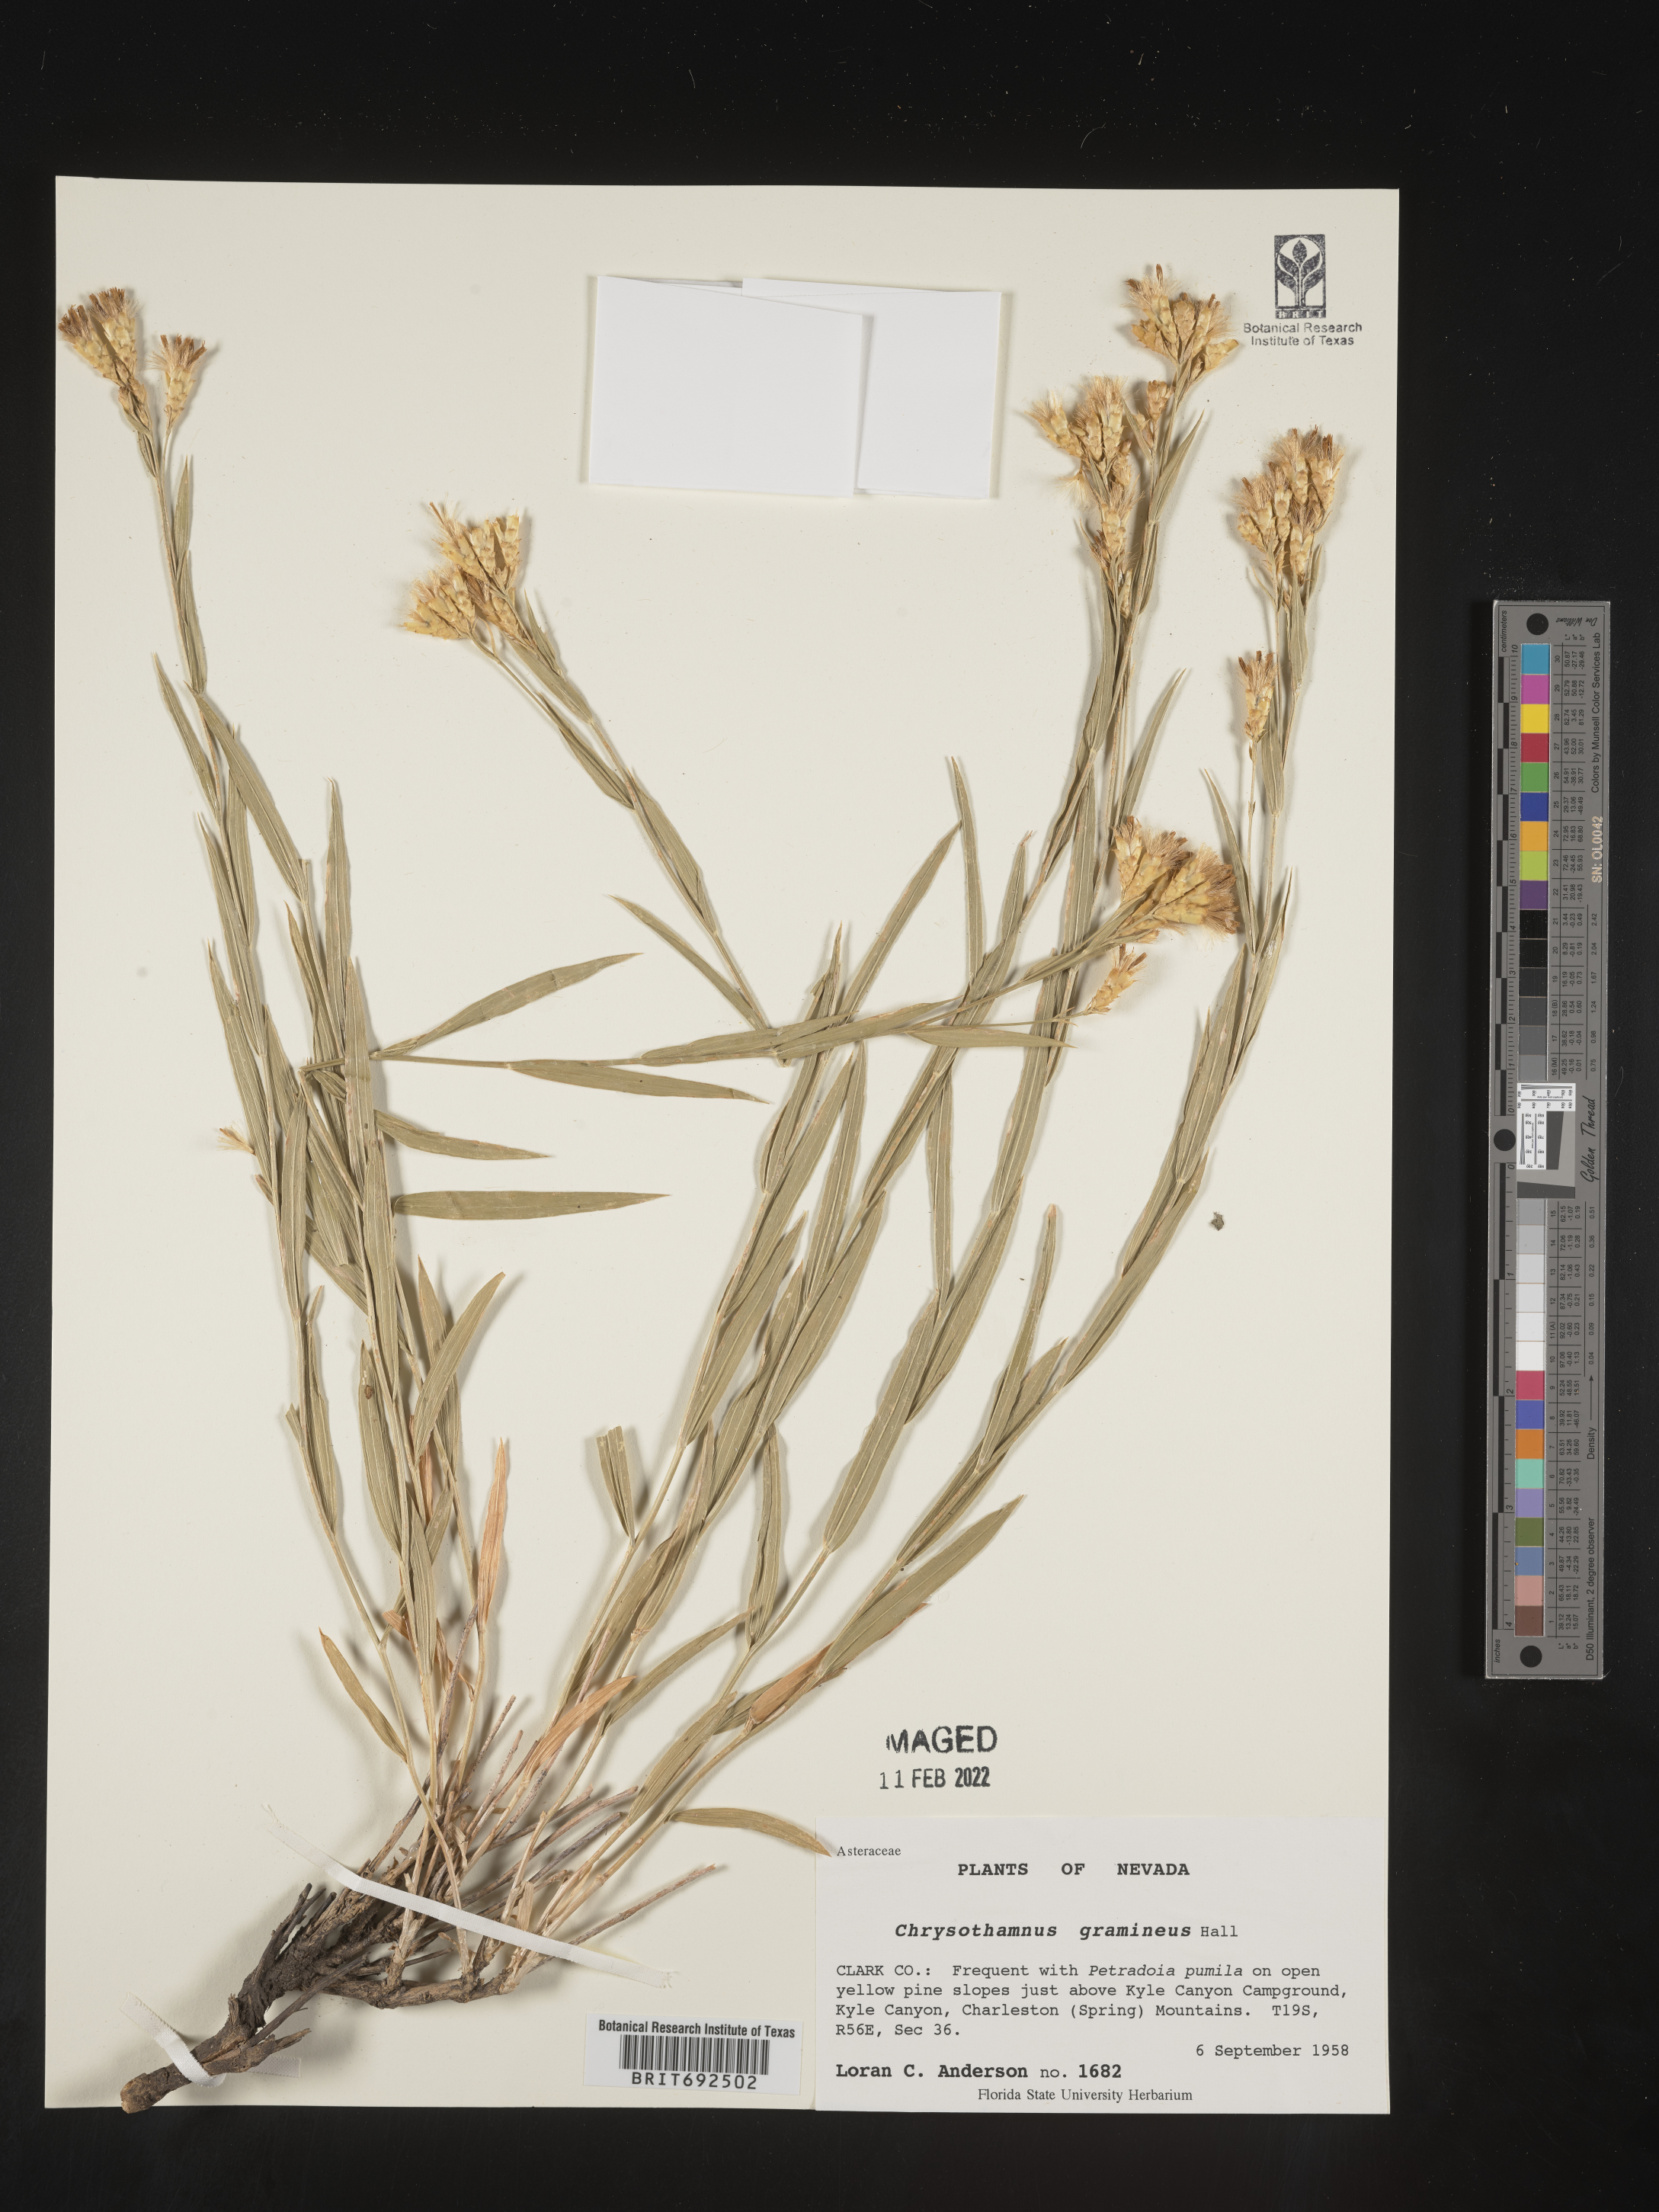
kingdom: Plantae
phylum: Tracheophyta
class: Magnoliopsida
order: Asterales
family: Asteraceae
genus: Cuniculotinus
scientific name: Cuniculotinus
